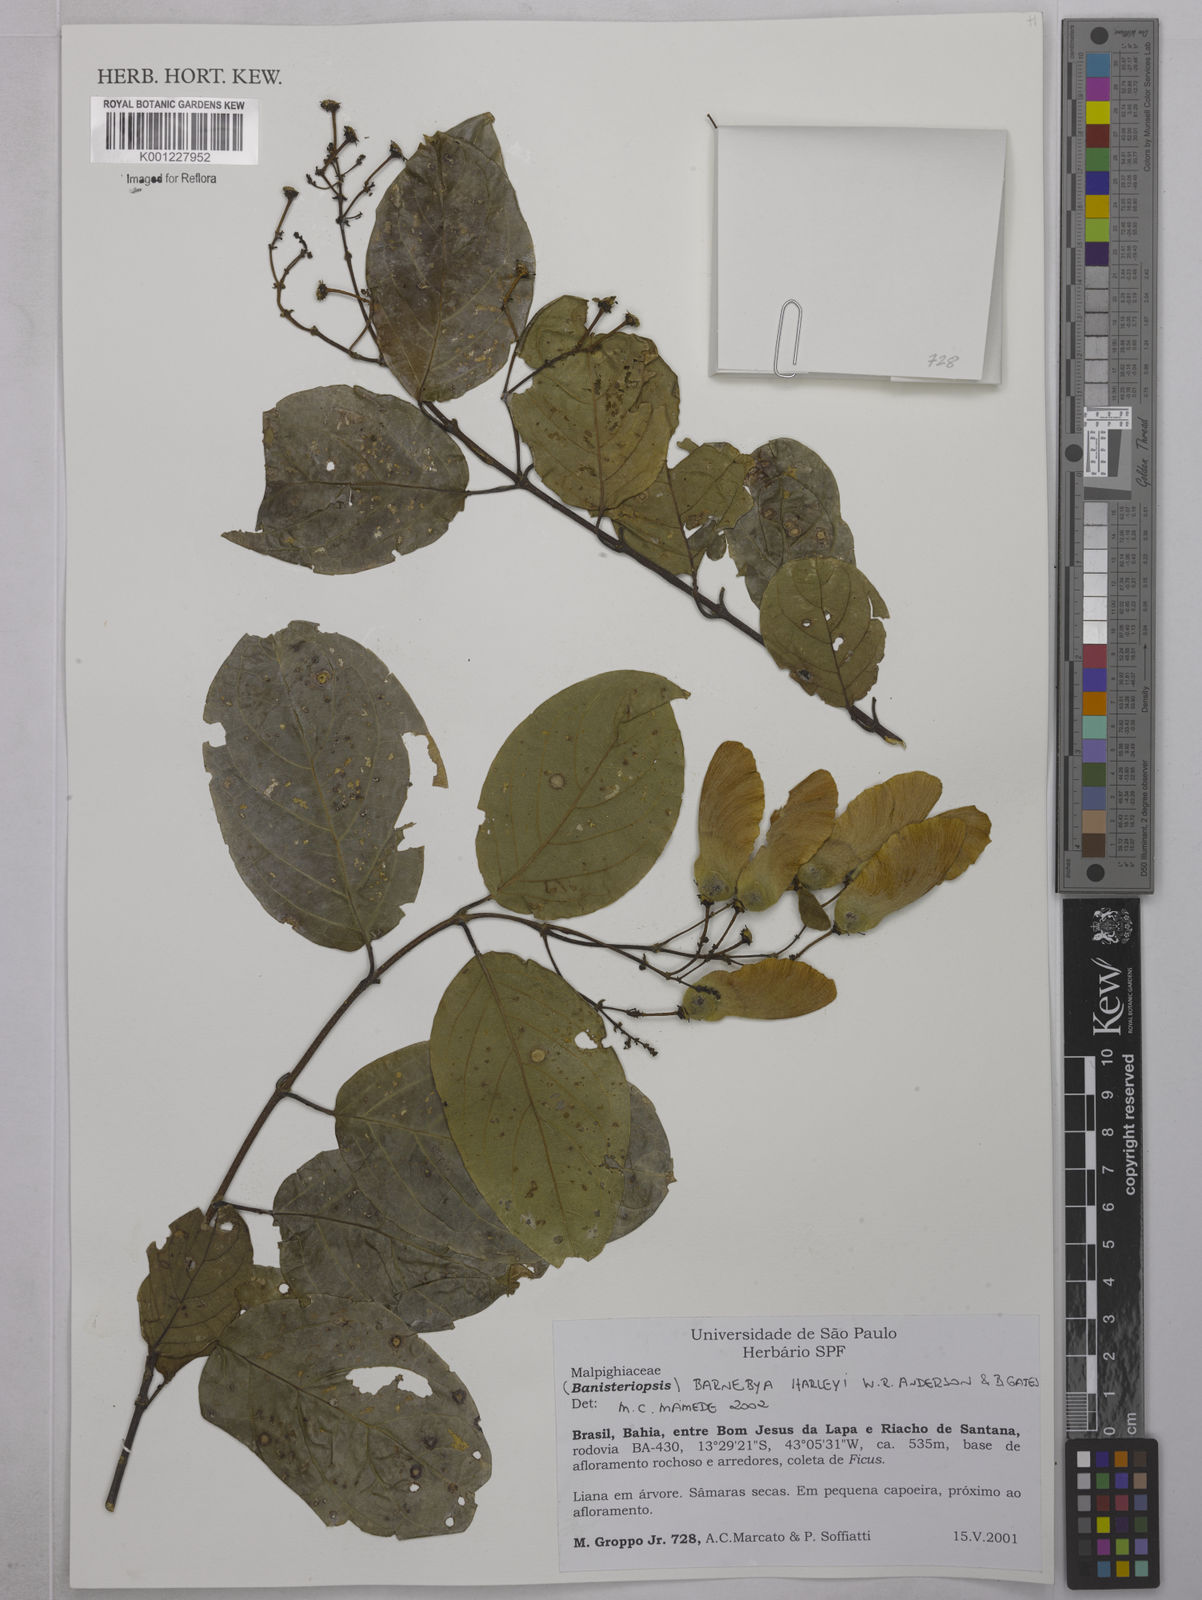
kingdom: Plantae
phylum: Tracheophyta
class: Magnoliopsida
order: Malpighiales
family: Malpighiaceae
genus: Barnebya
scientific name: Barnebya harleyi
